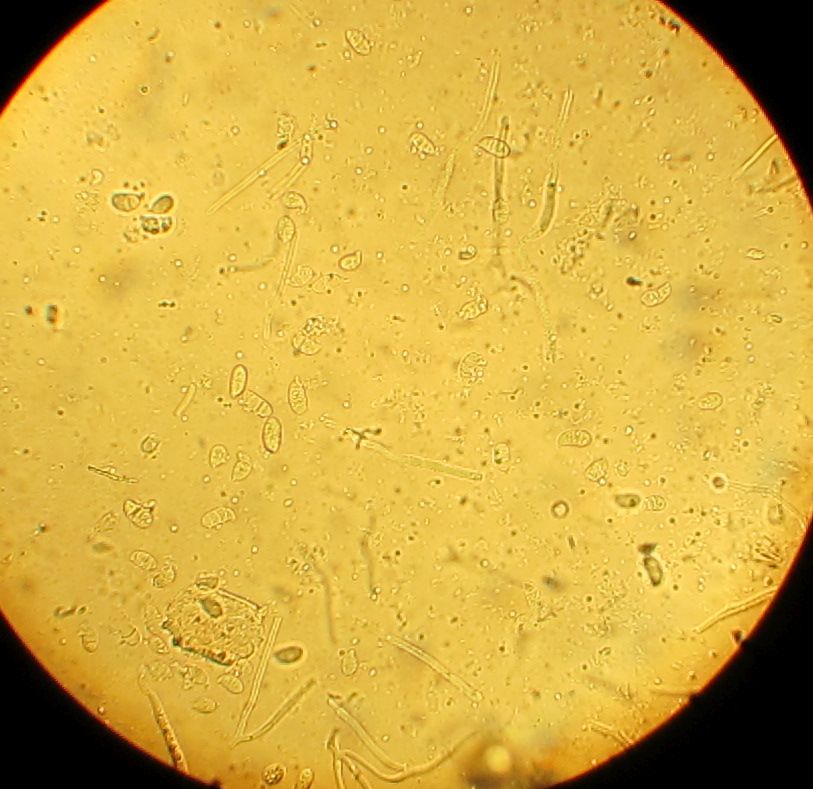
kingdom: Fungi
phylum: Basidiomycota
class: Dacrymycetes
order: Dacrymycetales
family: Dacrymycetaceae
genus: Dacrymyces
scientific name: Dacrymyces capitatus
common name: stilket tåresvamp
